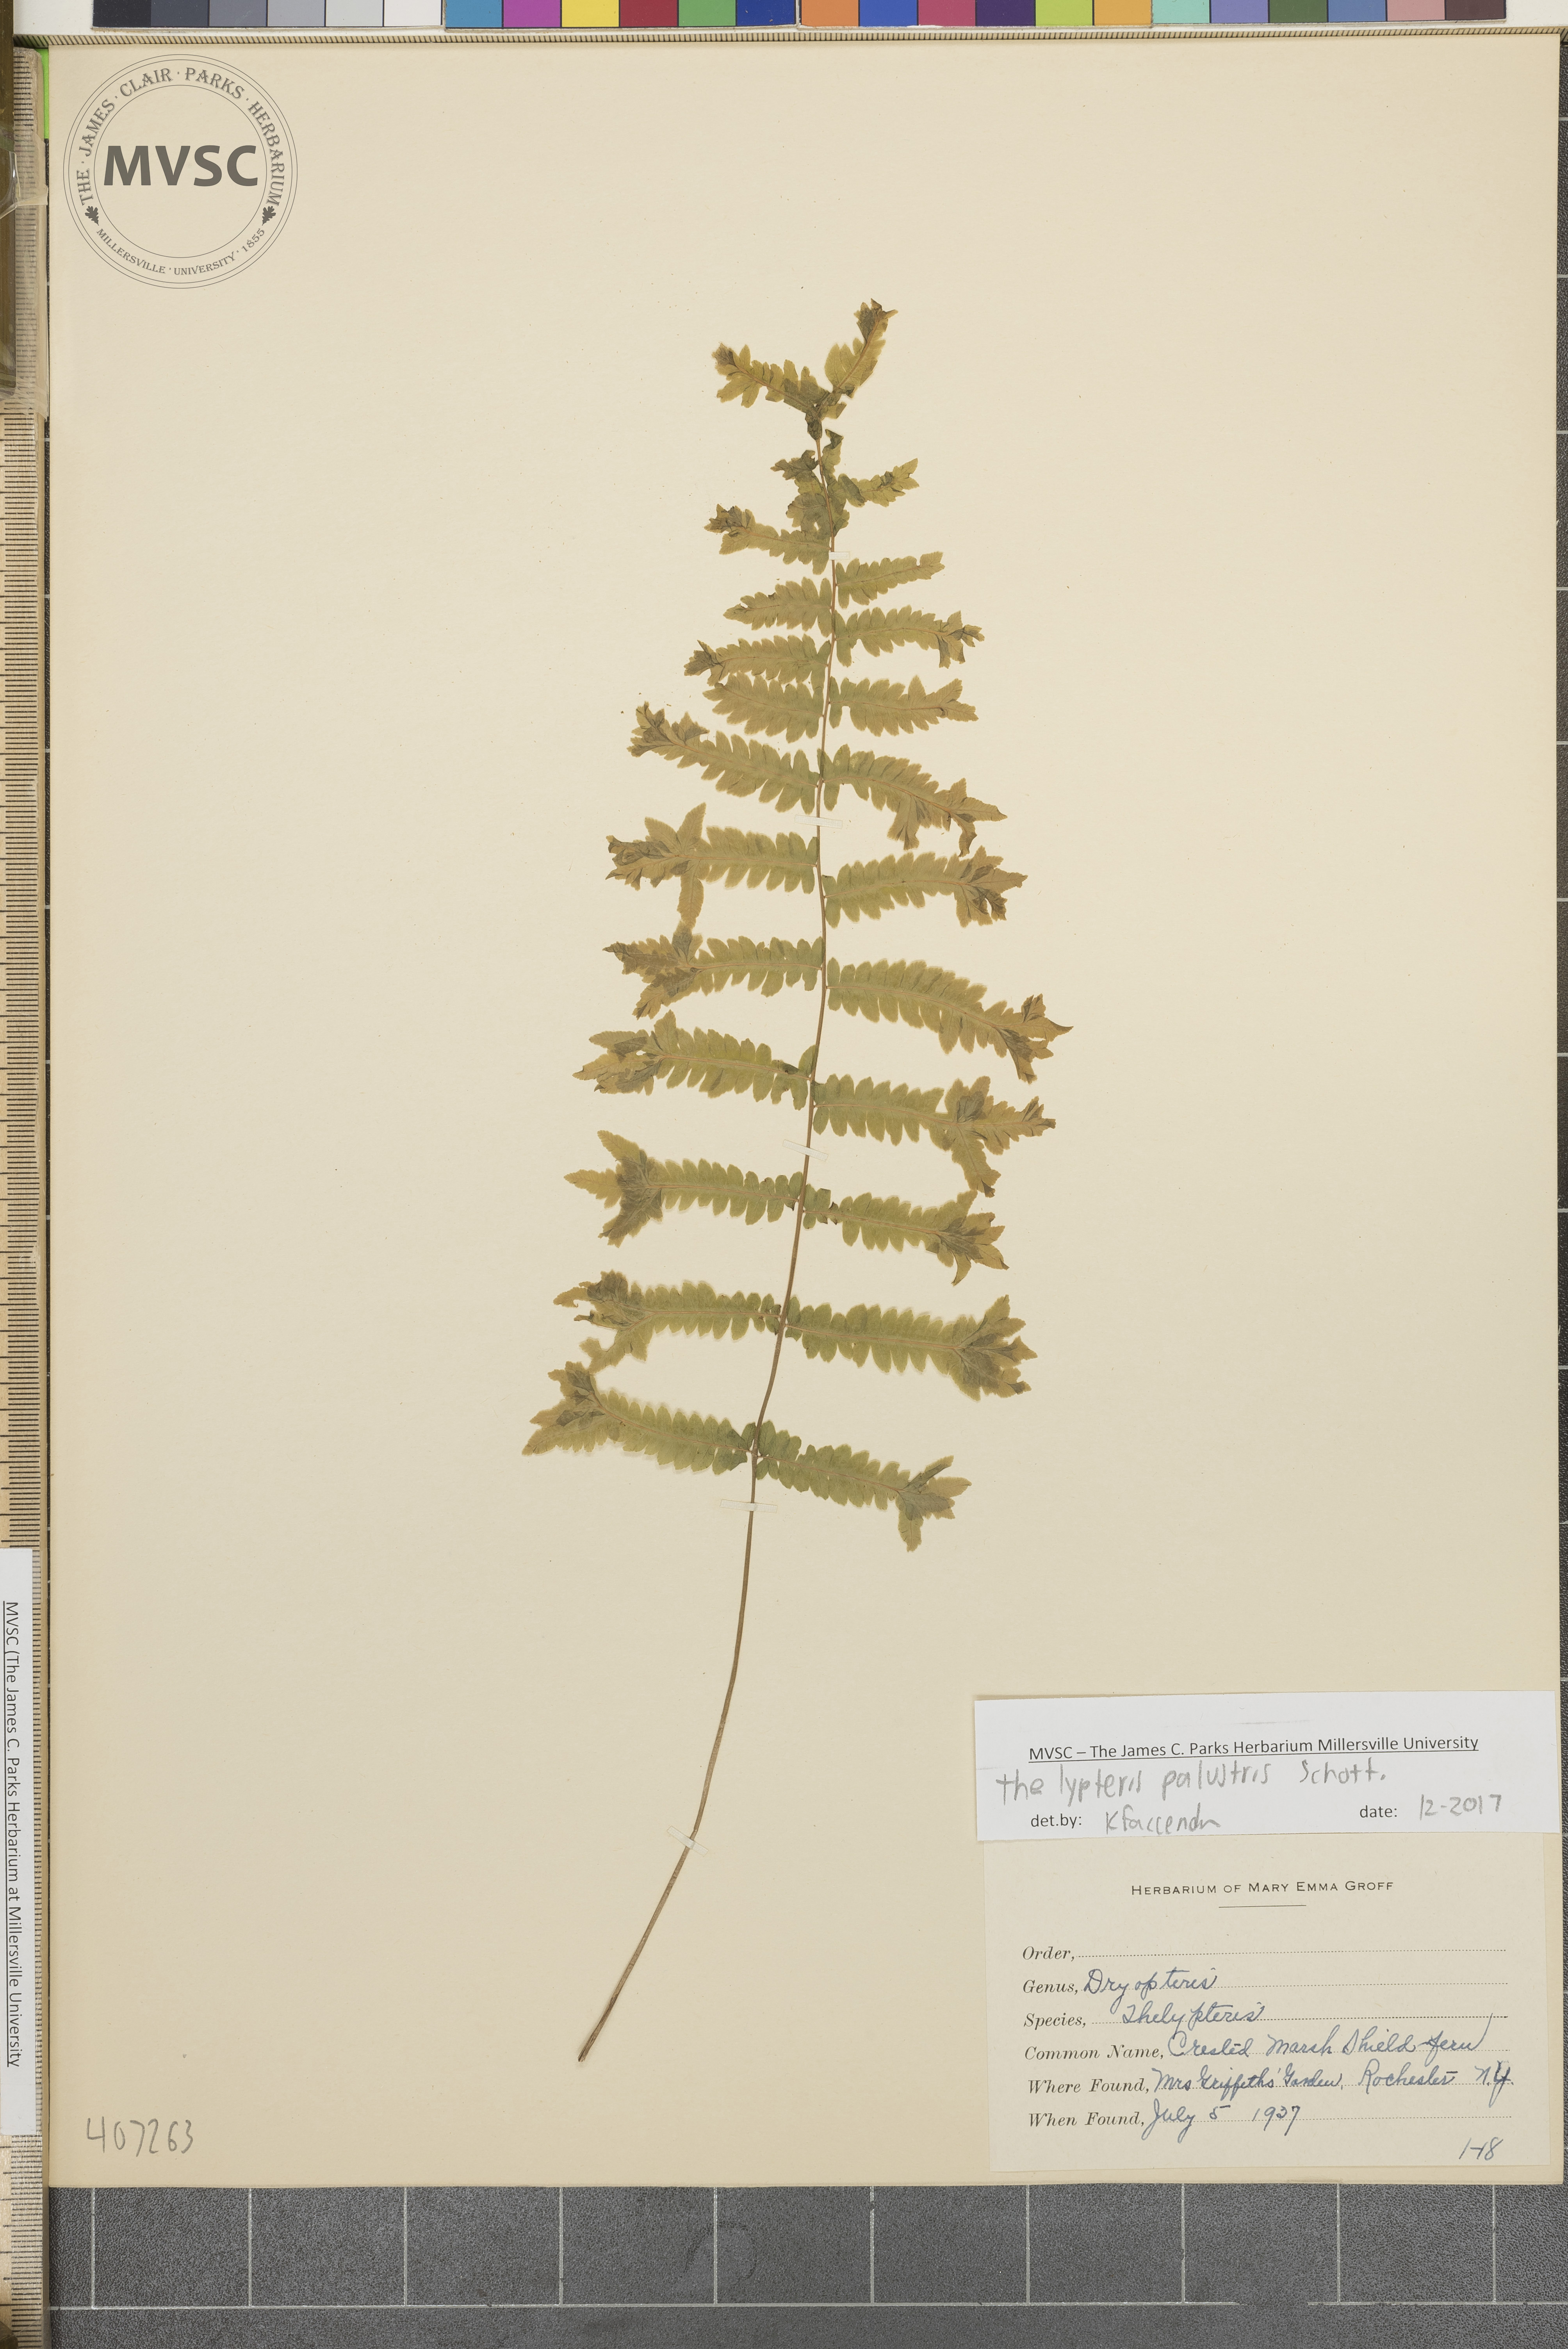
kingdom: Plantae
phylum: Tracheophyta
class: Polypodiopsida
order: Polypodiales
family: Thelypteridaceae
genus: Thelypteris
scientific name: Thelypteris palustris
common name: Marsh fern
